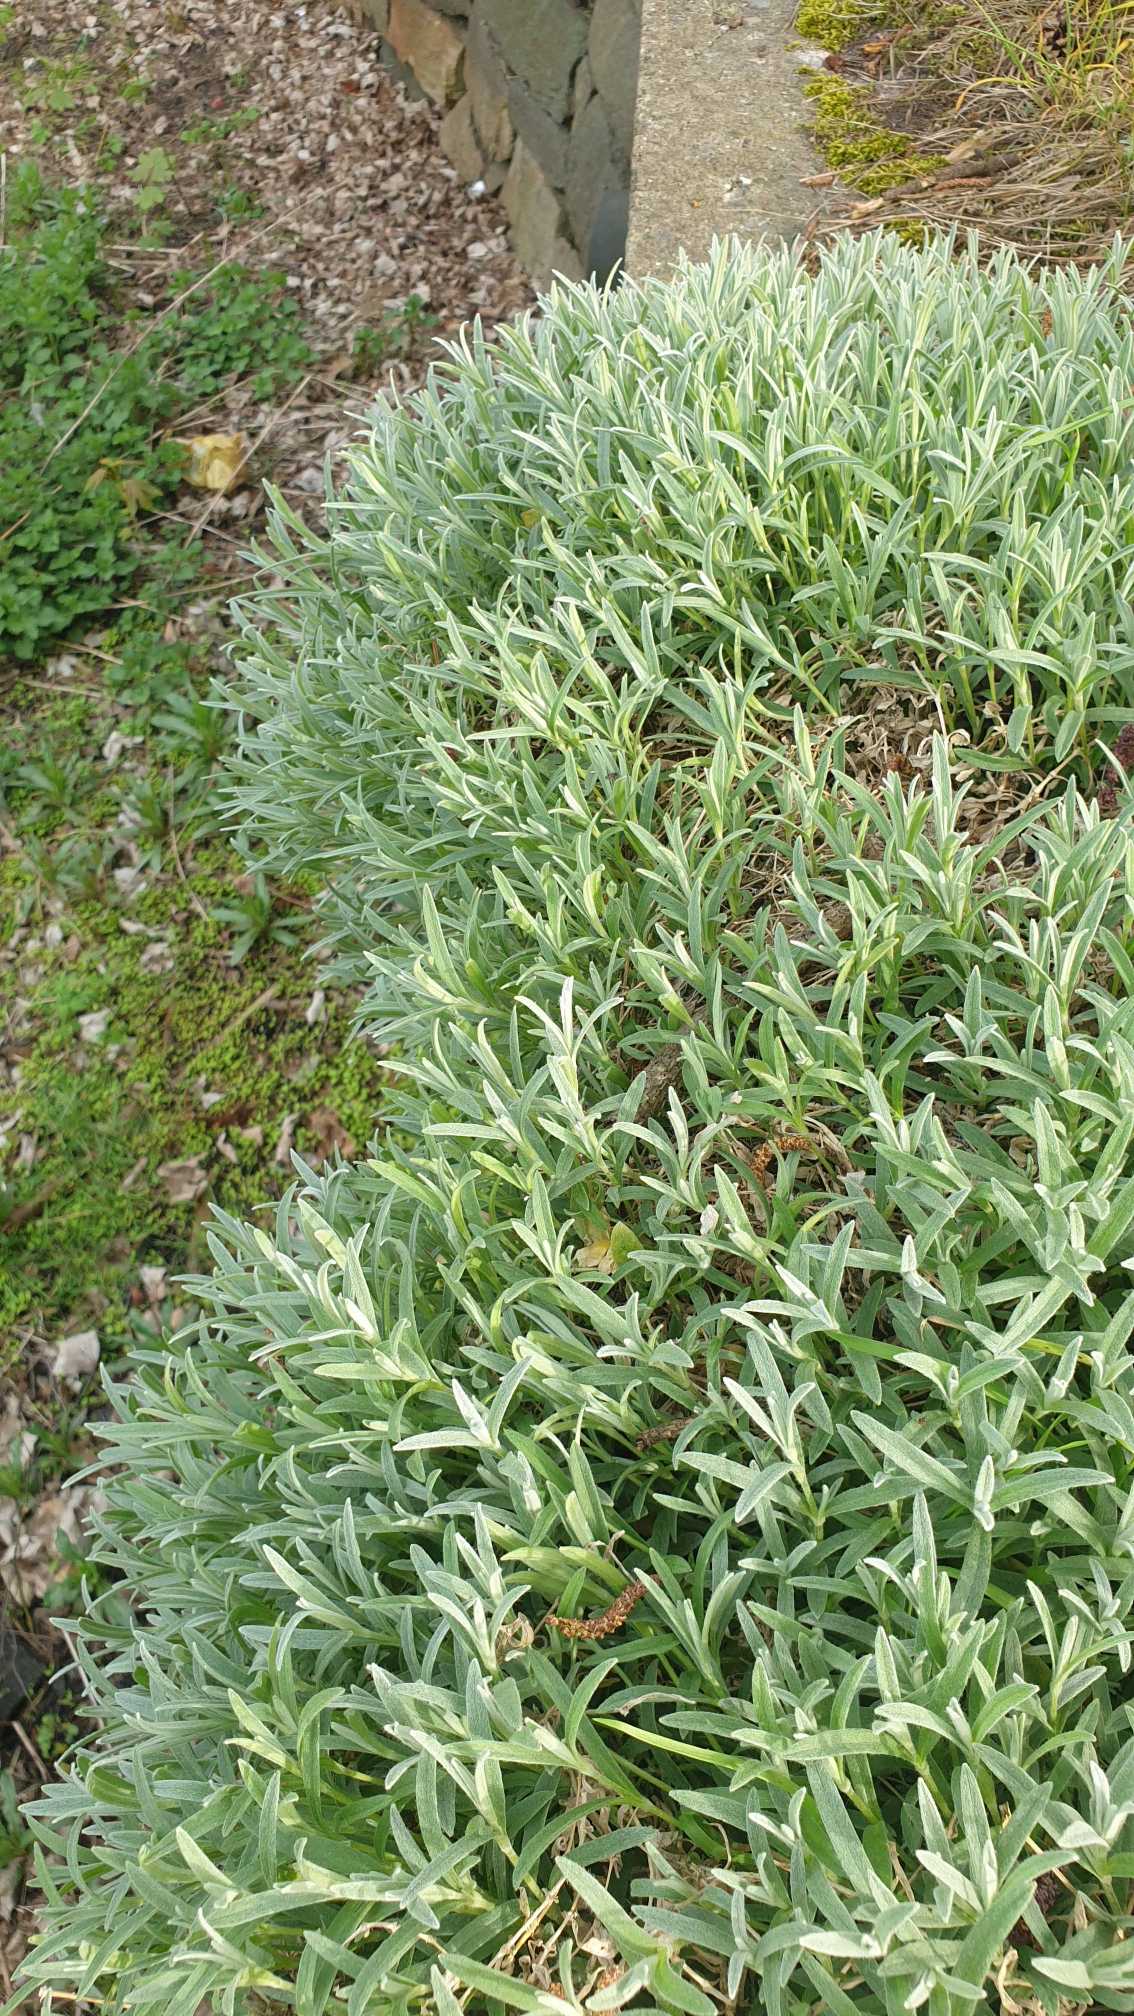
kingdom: Plantae
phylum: Tracheophyta
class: Magnoliopsida
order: Caryophyllales
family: Caryophyllaceae
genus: Cerastium
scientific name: Cerastium tomentosum
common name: Filtet hønsetarm
